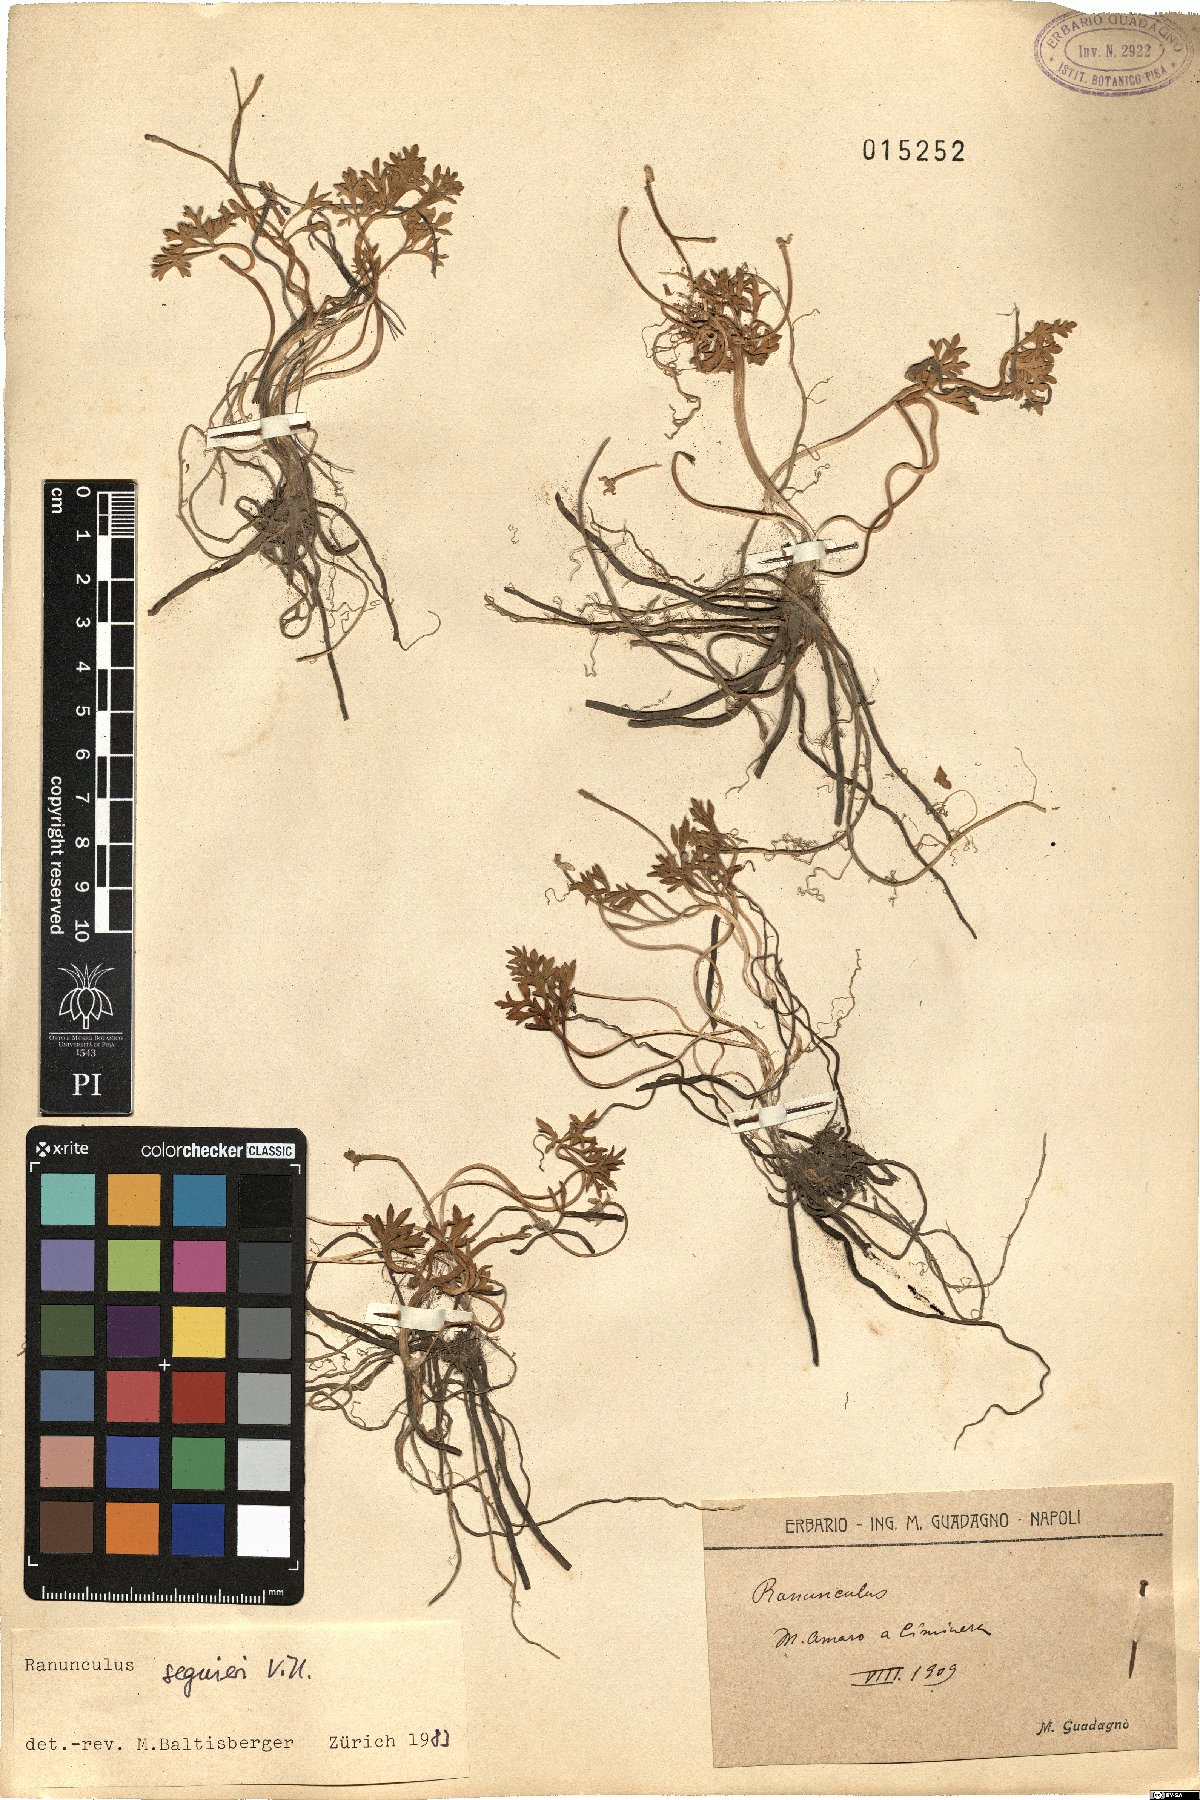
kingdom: Plantae
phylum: Tracheophyta
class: Magnoliopsida
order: Ranunculales
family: Ranunculaceae
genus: Ranunculus
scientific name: Ranunculus seguieri
